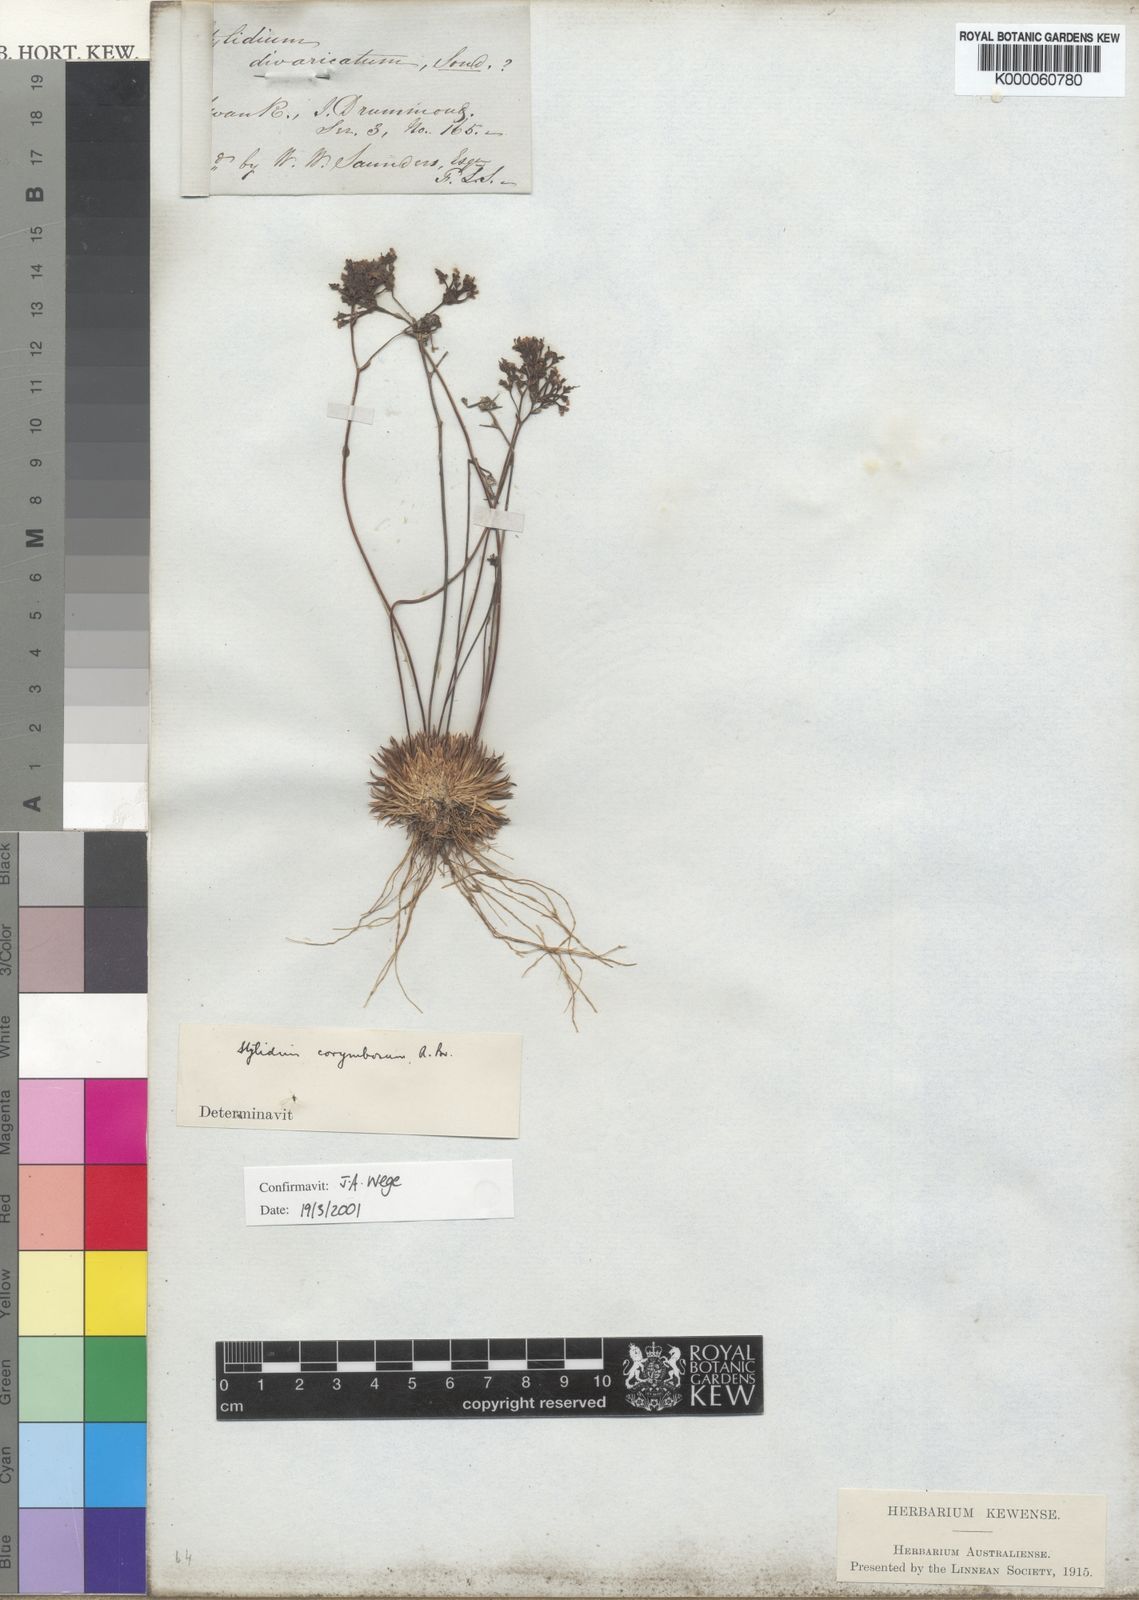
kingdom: Plantae
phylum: Tracheophyta
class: Magnoliopsida
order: Asterales
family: Stylidiaceae
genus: Stylidium
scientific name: Stylidium corymbosum
